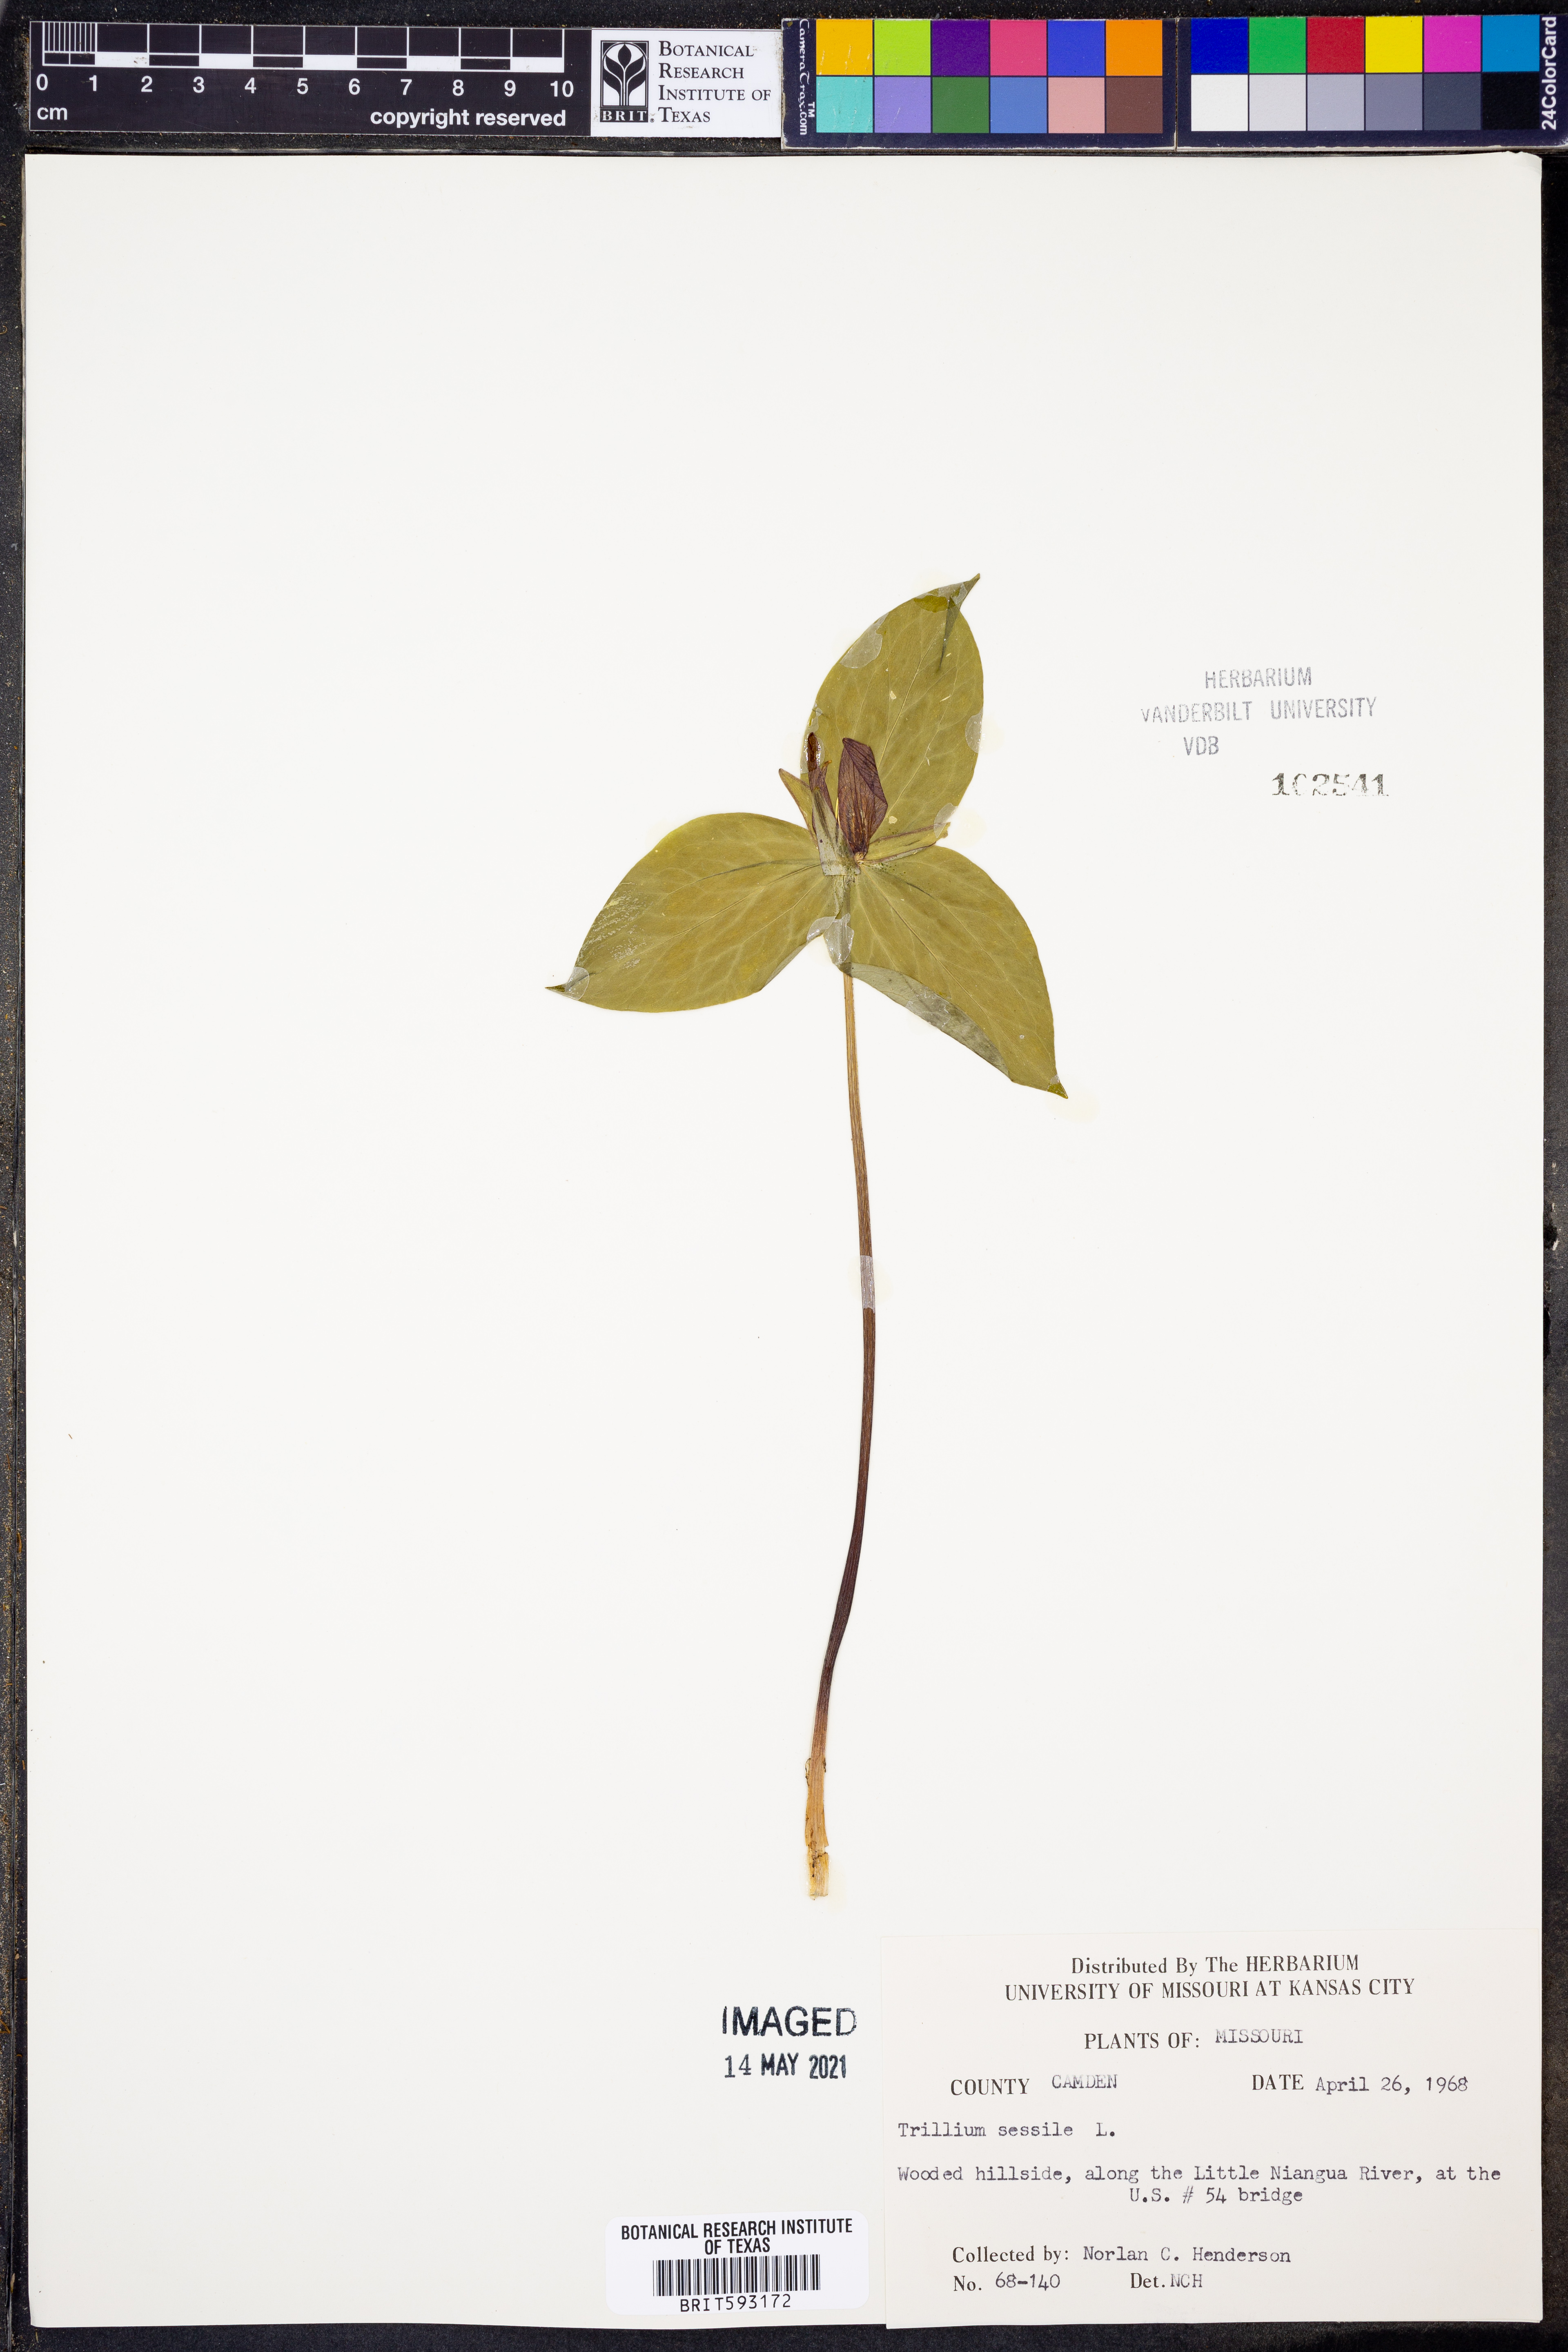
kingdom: Plantae
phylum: Tracheophyta
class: Liliopsida
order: Liliales
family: Melanthiaceae
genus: Trillium
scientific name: Trillium sessile
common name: Sessile trillium
